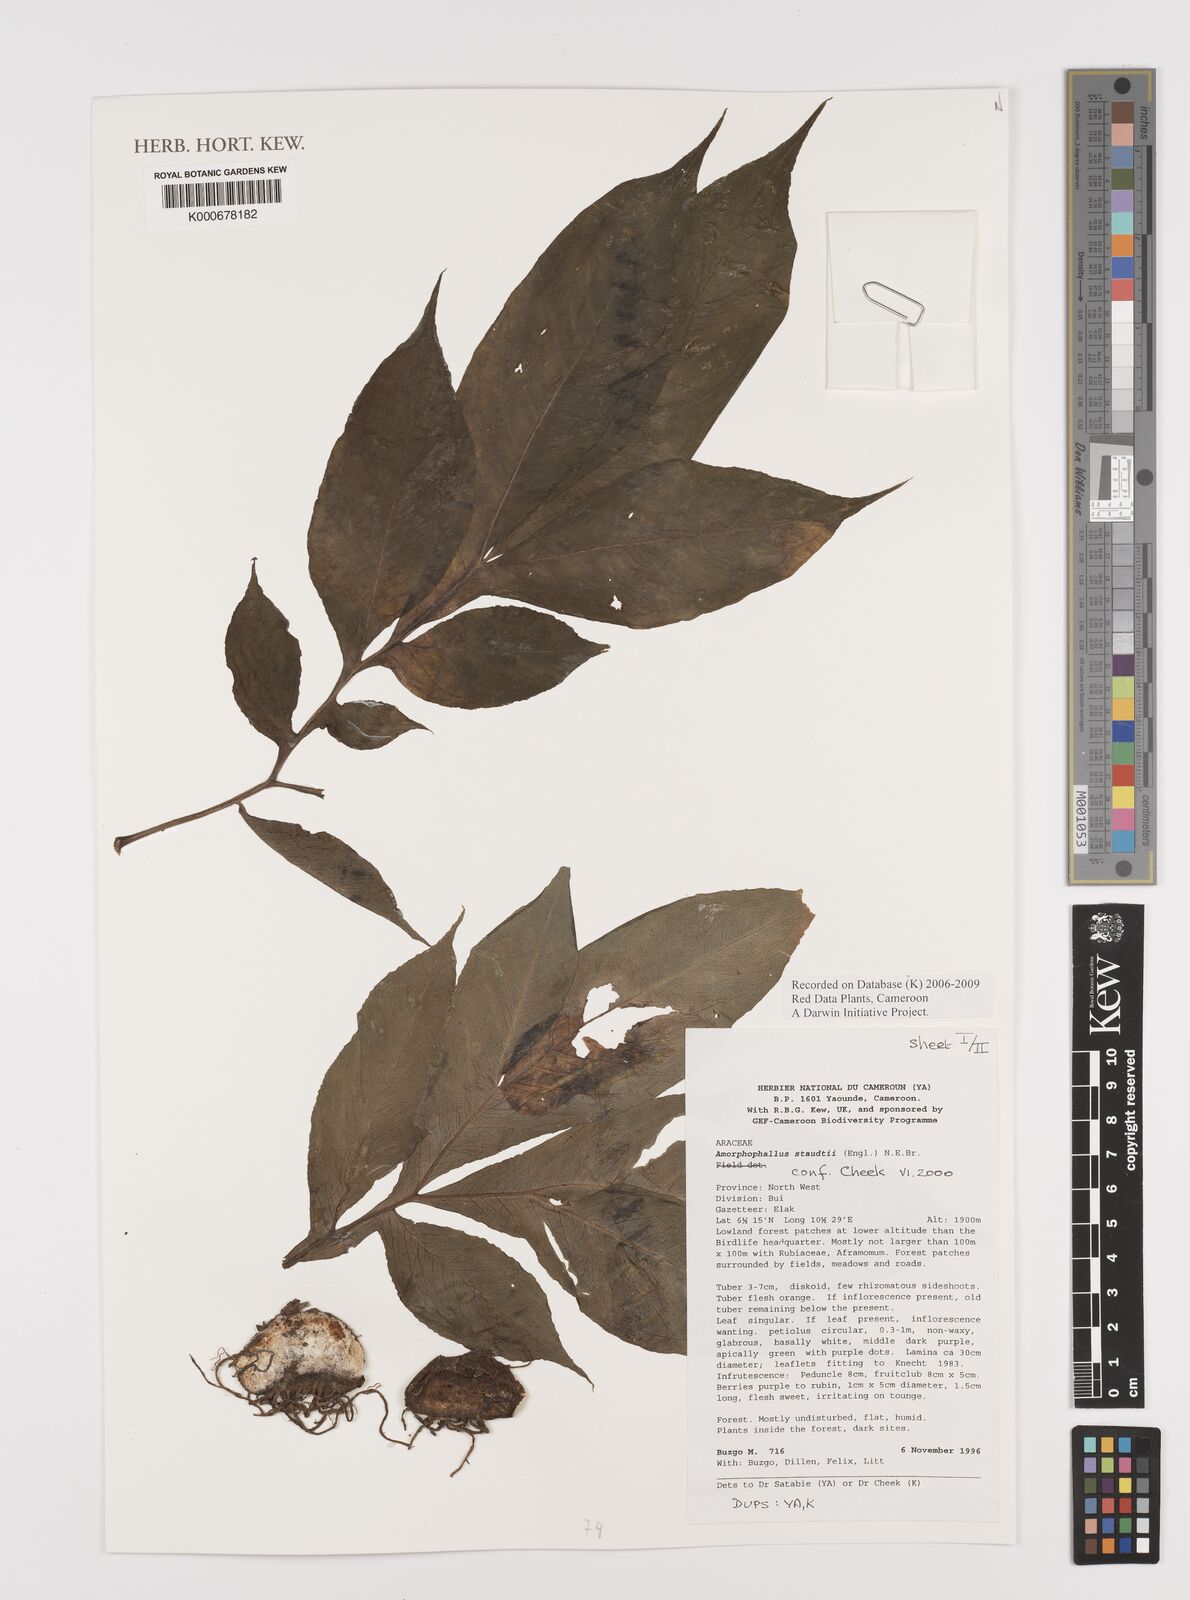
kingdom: Plantae
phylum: Tracheophyta
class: Liliopsida
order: Alismatales
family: Araceae
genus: Amorphophallus
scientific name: Amorphophallus staudtii
